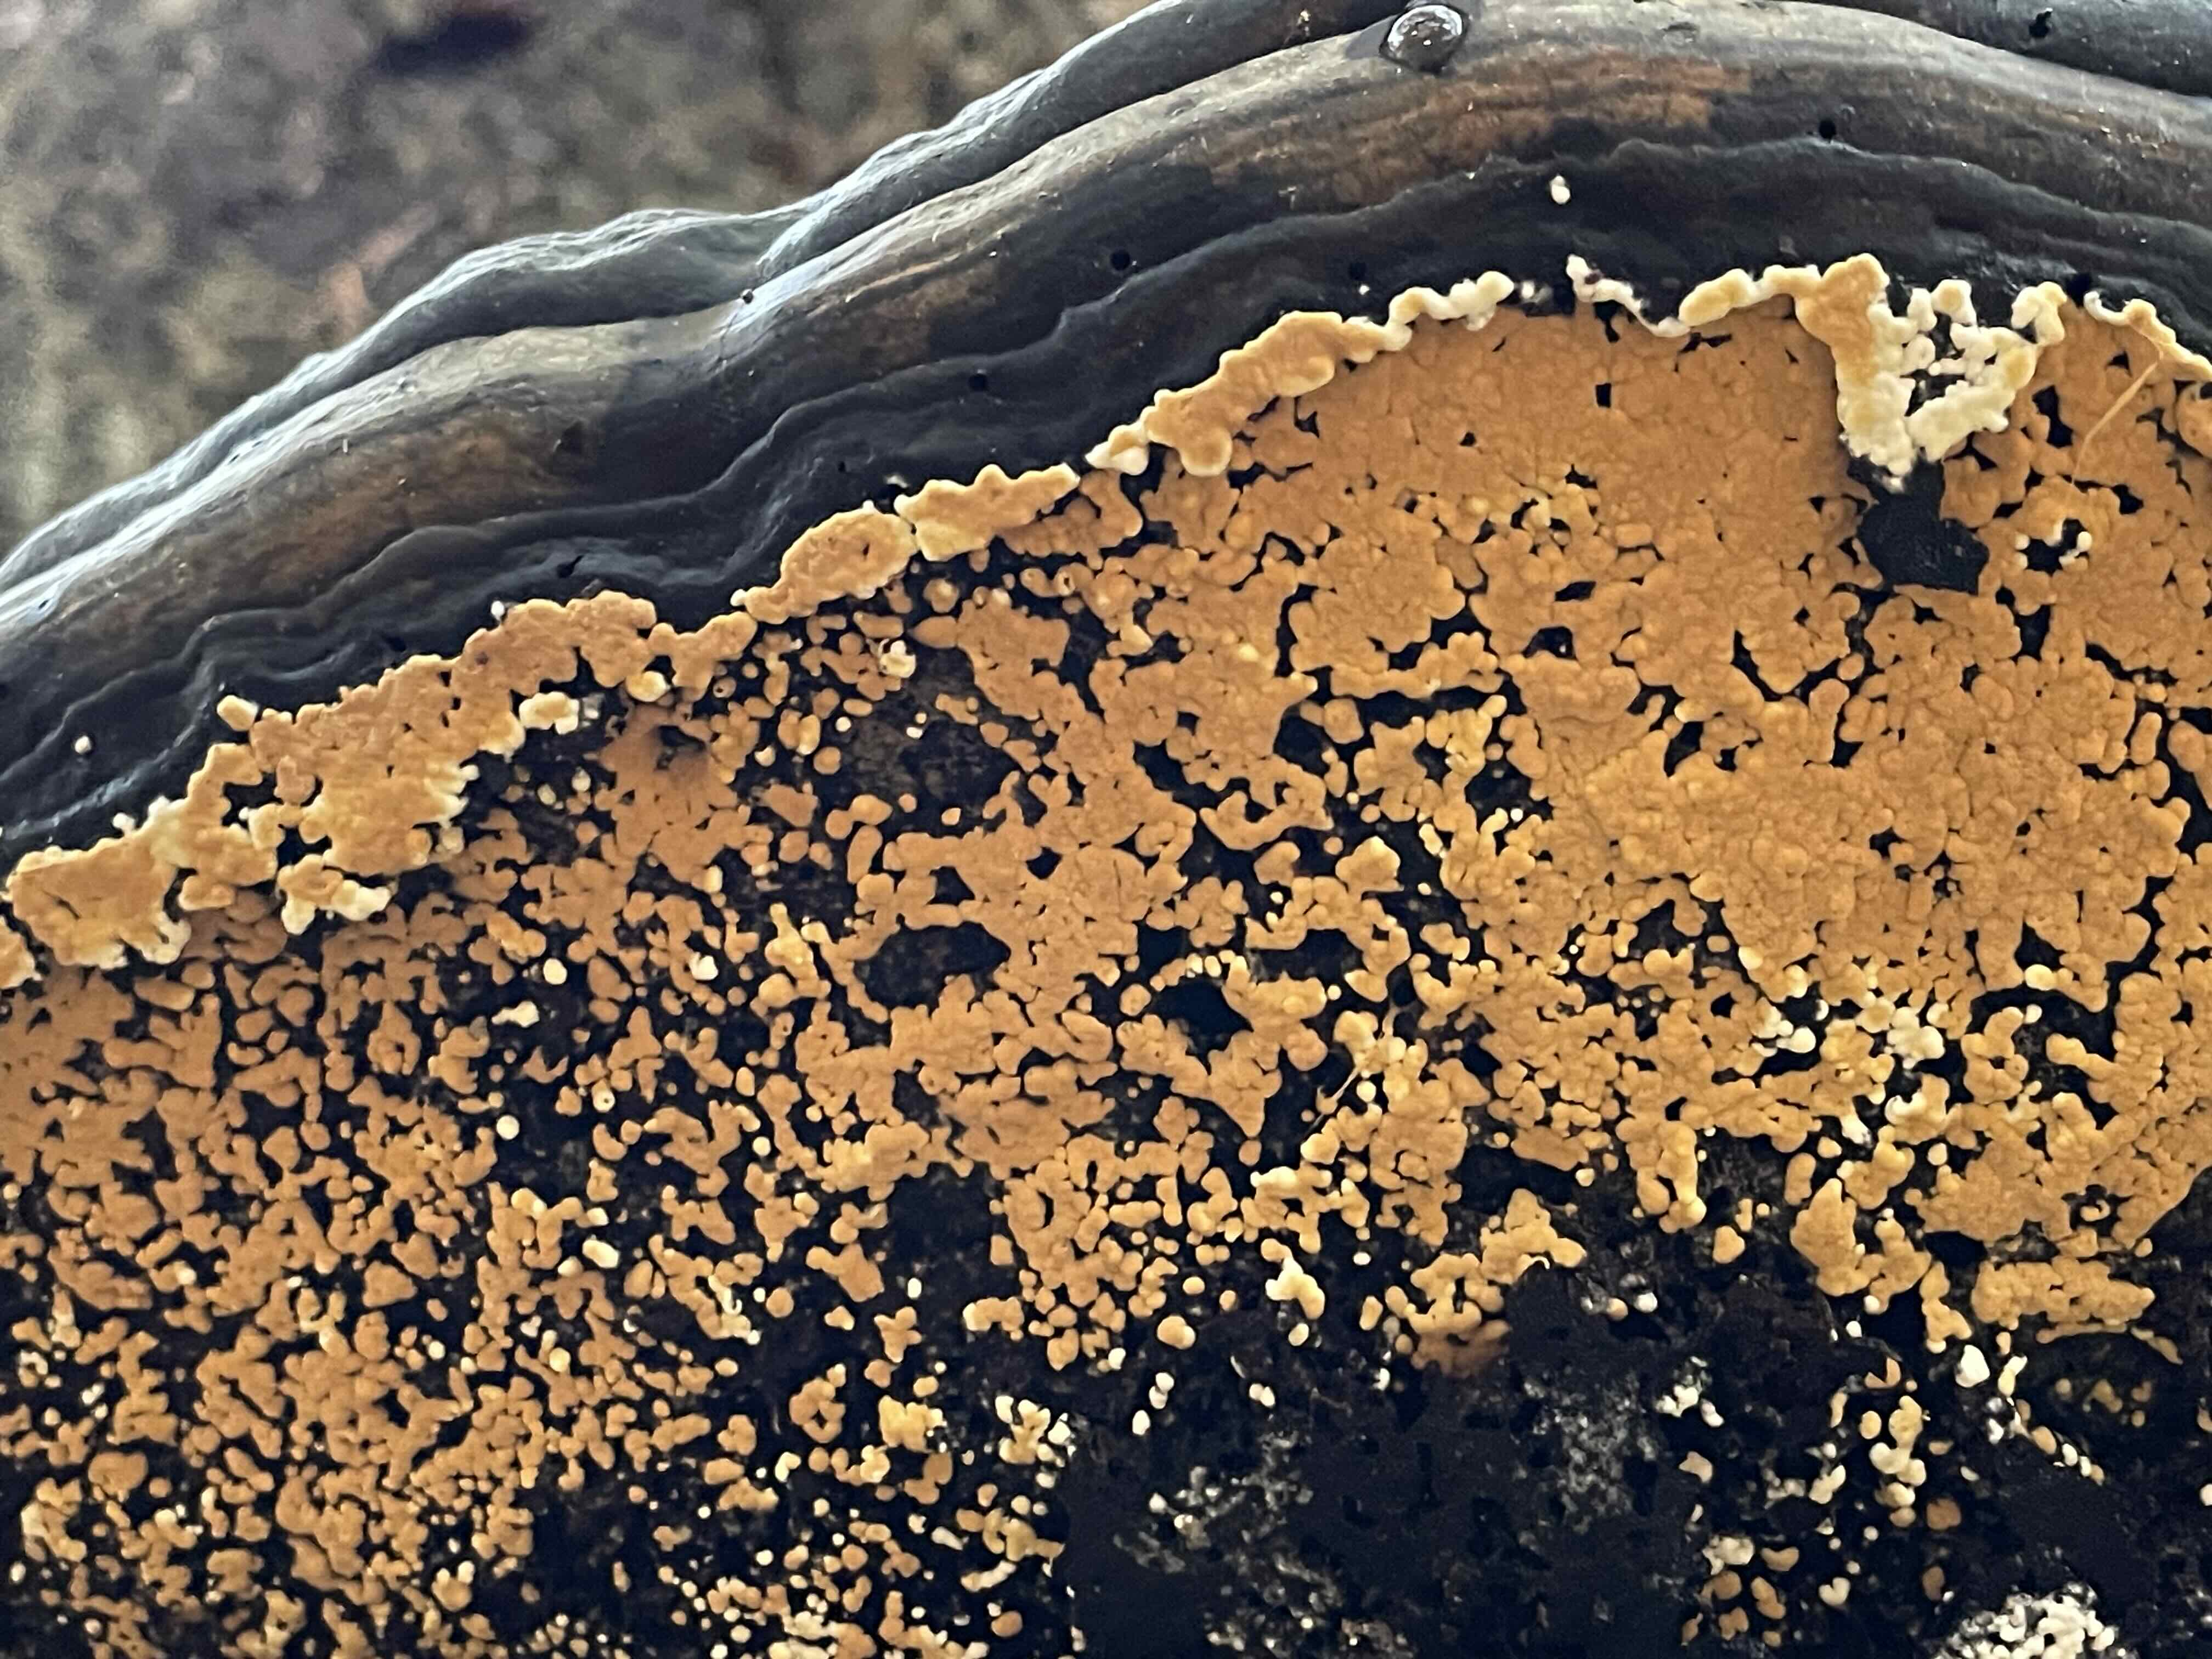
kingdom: Fungi
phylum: Basidiomycota
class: Agaricomycetes
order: Cantharellales
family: Botryobasidiaceae
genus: Botryobasidium
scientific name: Botryobasidium aureum
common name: gylden spindhinde
